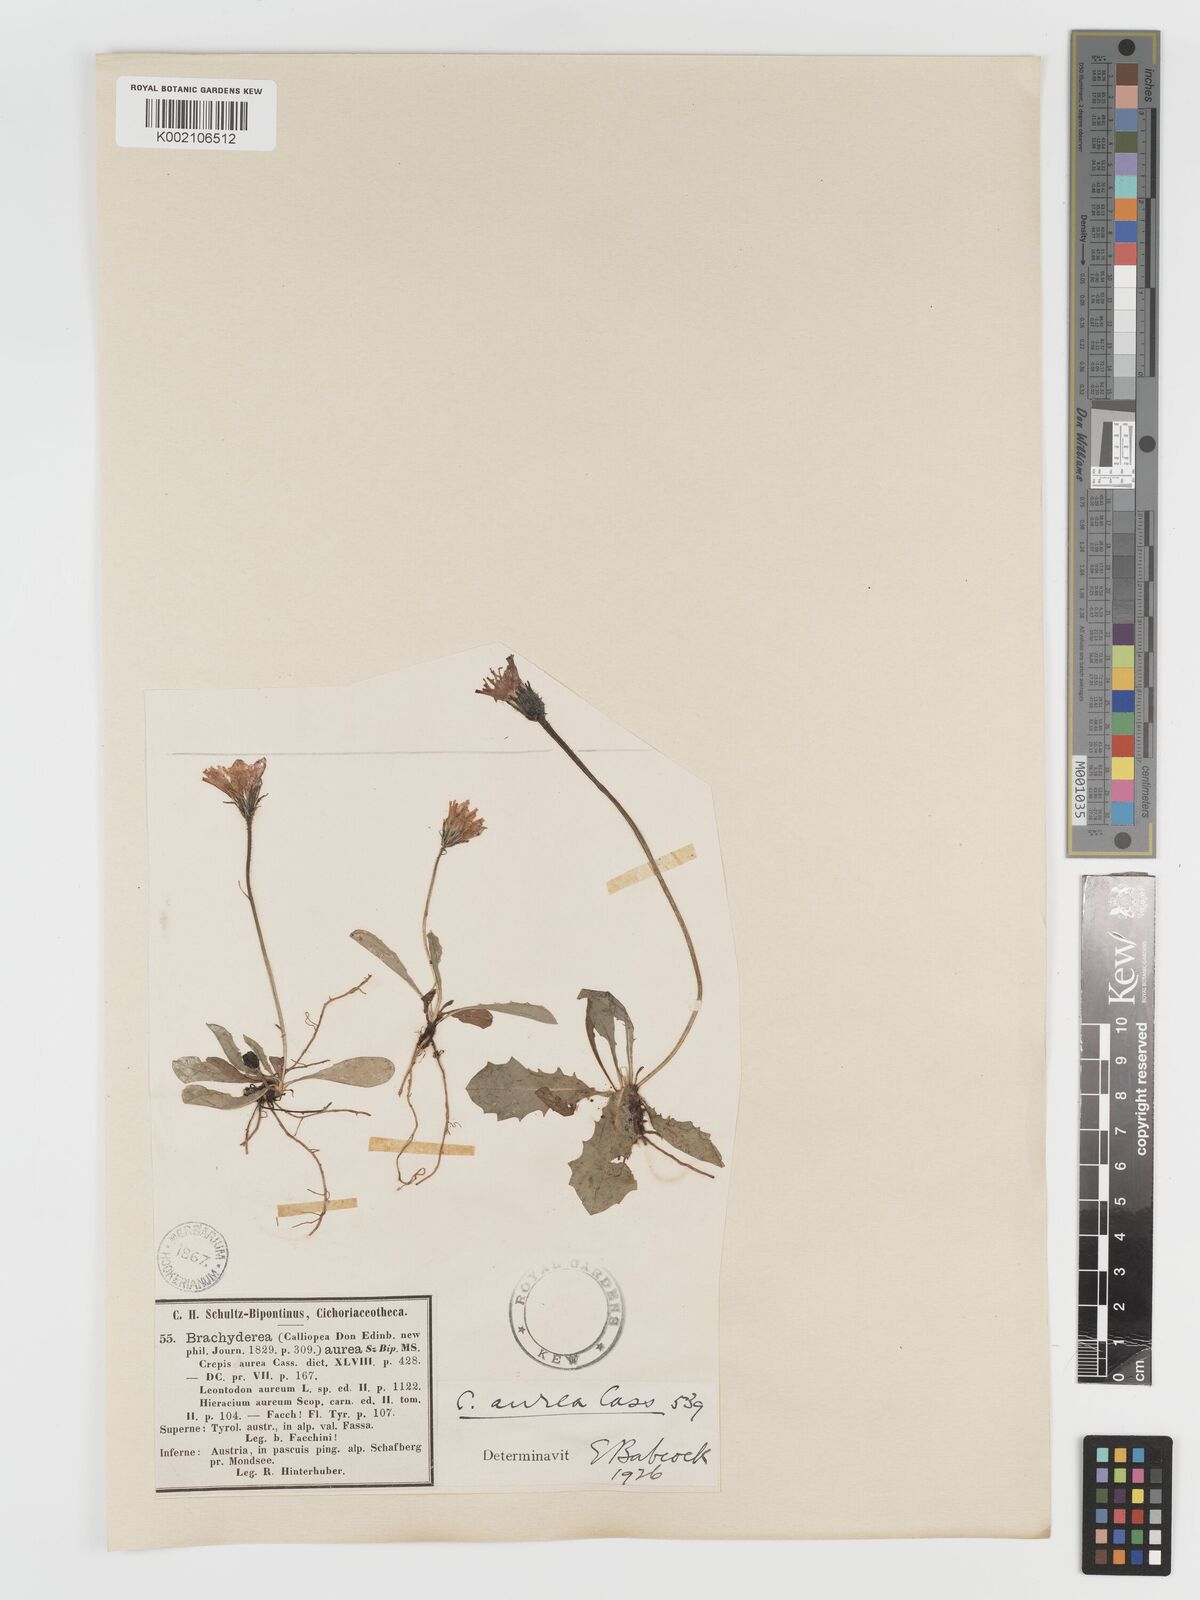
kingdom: Plantae
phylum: Tracheophyta
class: Magnoliopsida
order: Asterales
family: Asteraceae
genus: Crepis
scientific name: Crepis aurea
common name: Golden hawk's-beard
